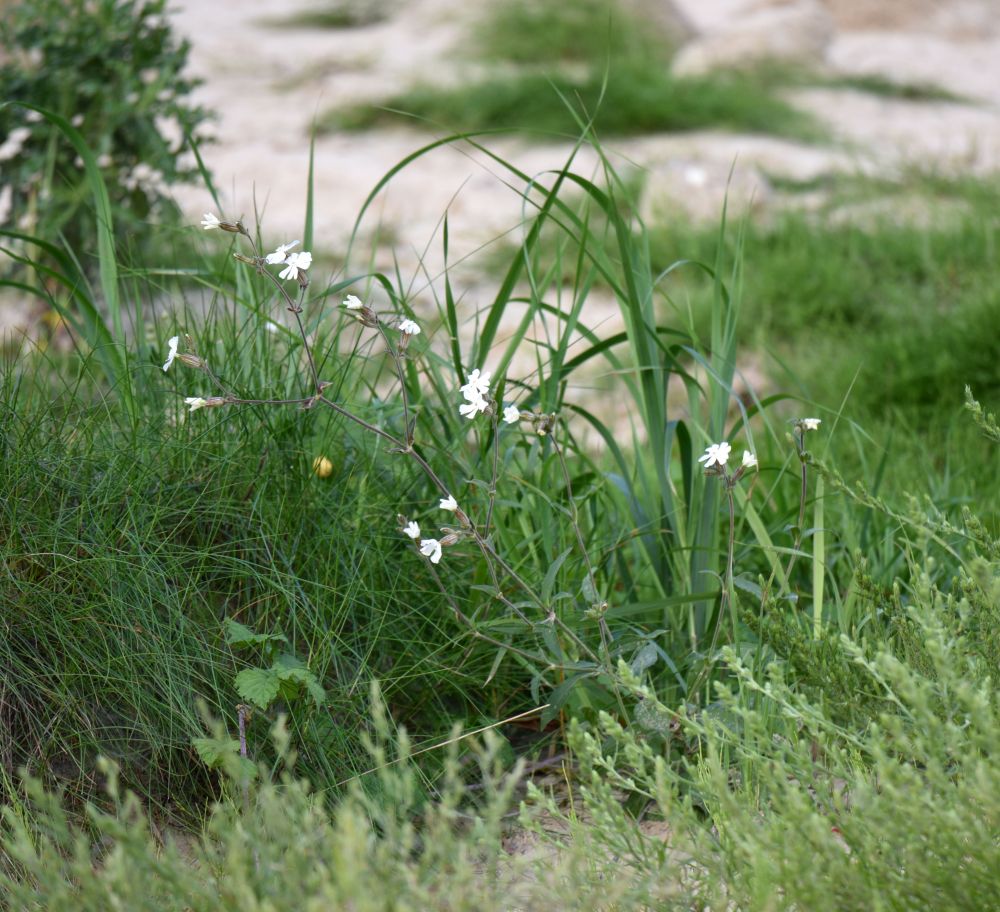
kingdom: Plantae
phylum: Tracheophyta
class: Magnoliopsida
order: Caryophyllales
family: Caryophyllaceae
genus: Silene
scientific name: Silene latifolia
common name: White campion
